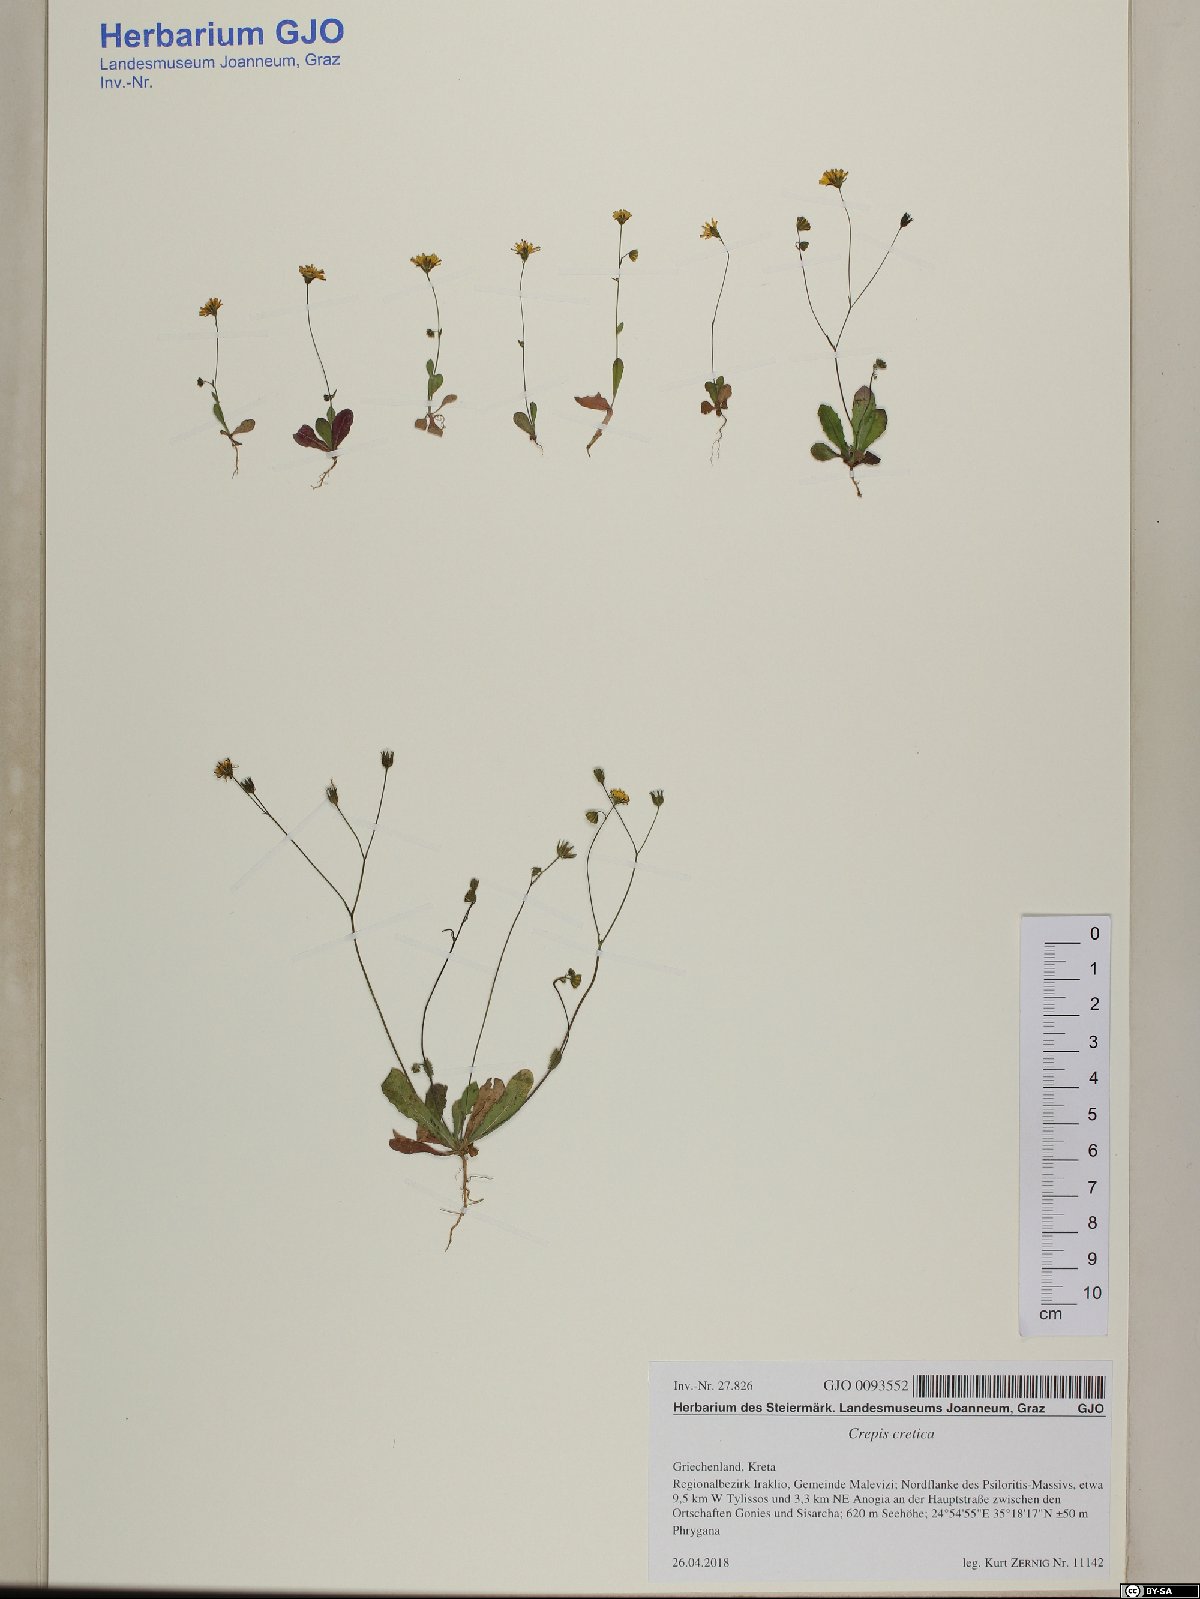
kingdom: Plantae
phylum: Tracheophyta
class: Magnoliopsida
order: Asterales
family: Asteraceae
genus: Crepis
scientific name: Crepis neglecta
